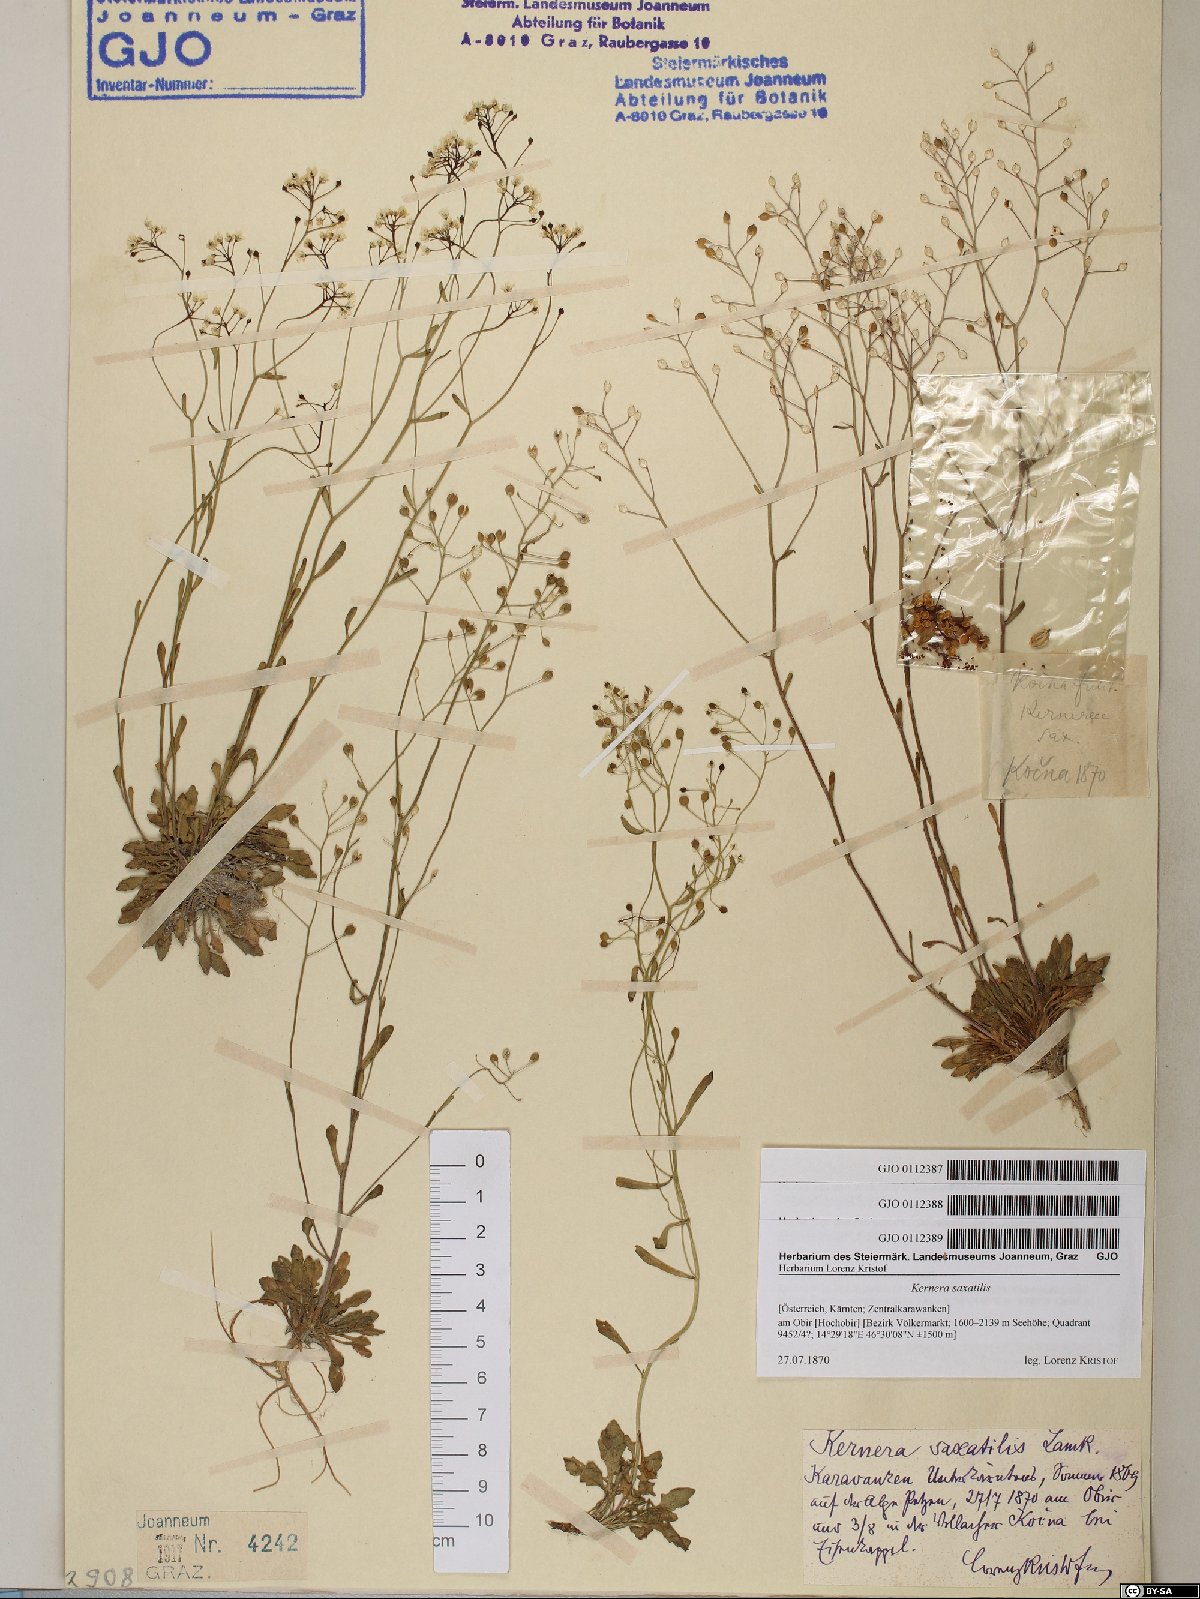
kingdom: Plantae
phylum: Tracheophyta
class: Magnoliopsida
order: Brassicales
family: Brassicaceae
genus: Kernera
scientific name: Kernera saxatilis
